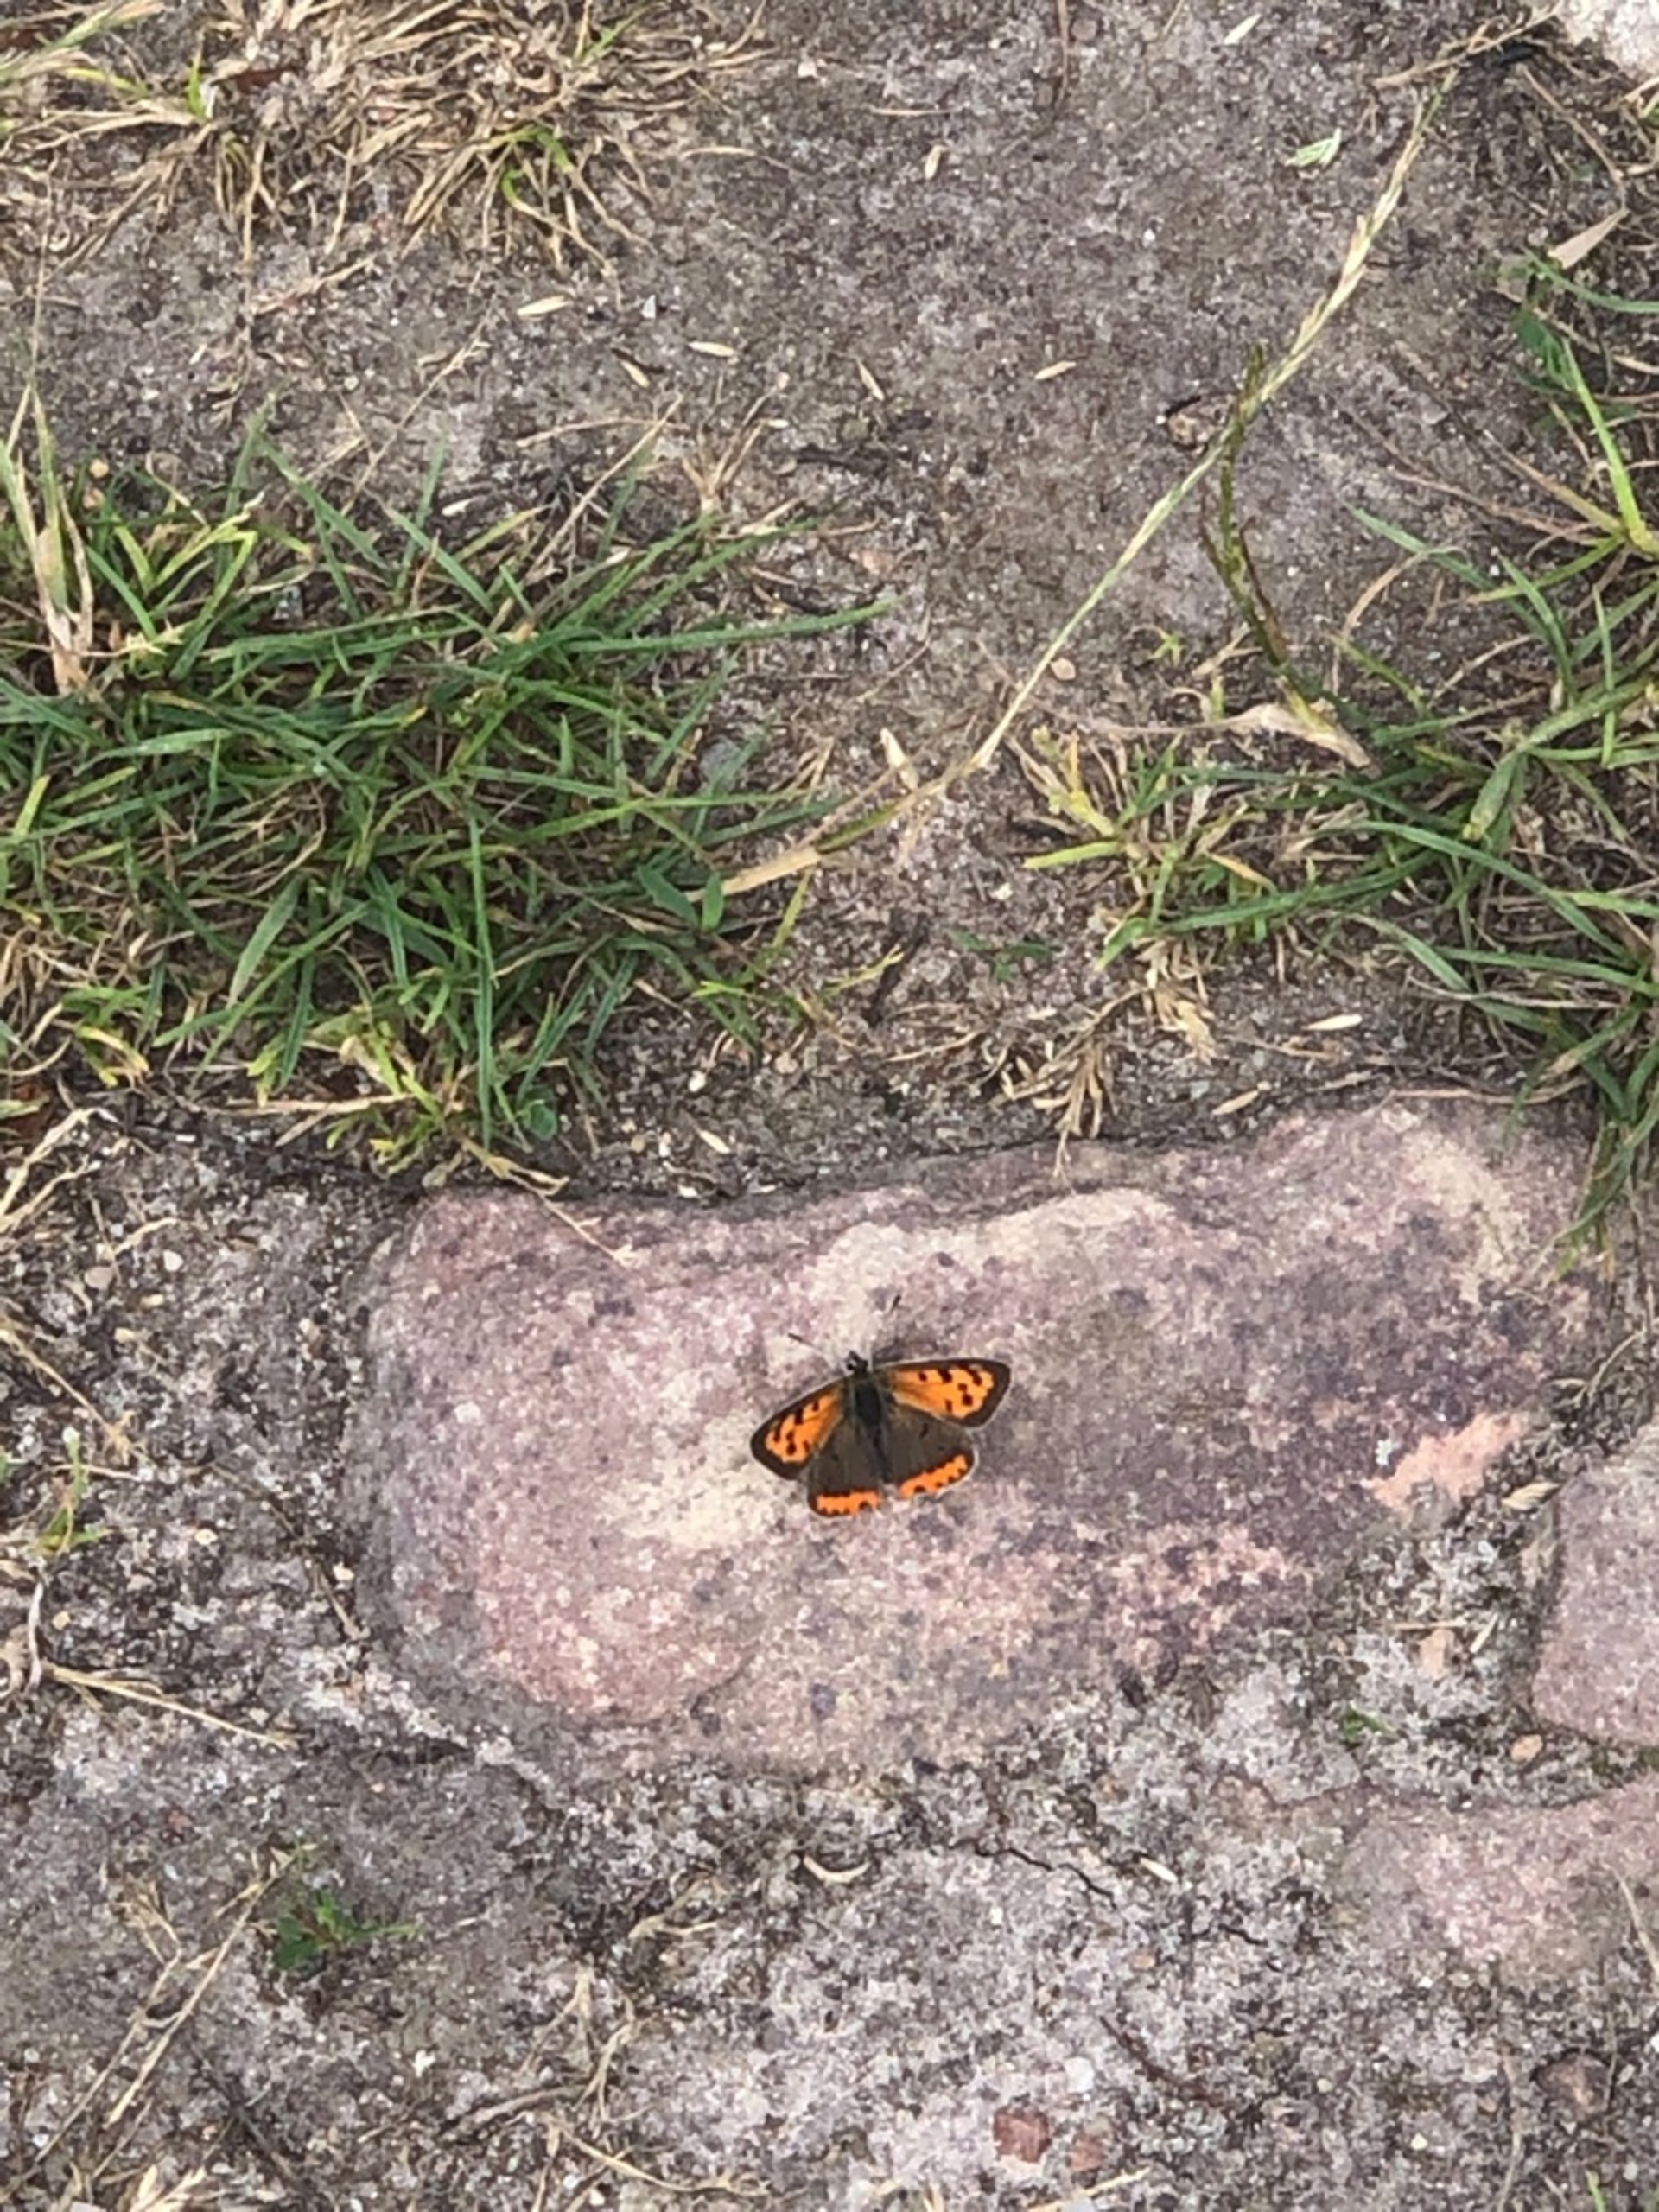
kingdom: Animalia
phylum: Arthropoda
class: Insecta
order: Lepidoptera
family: Lycaenidae
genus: Lycaena
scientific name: Lycaena phlaeas
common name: Lille ildfugl
